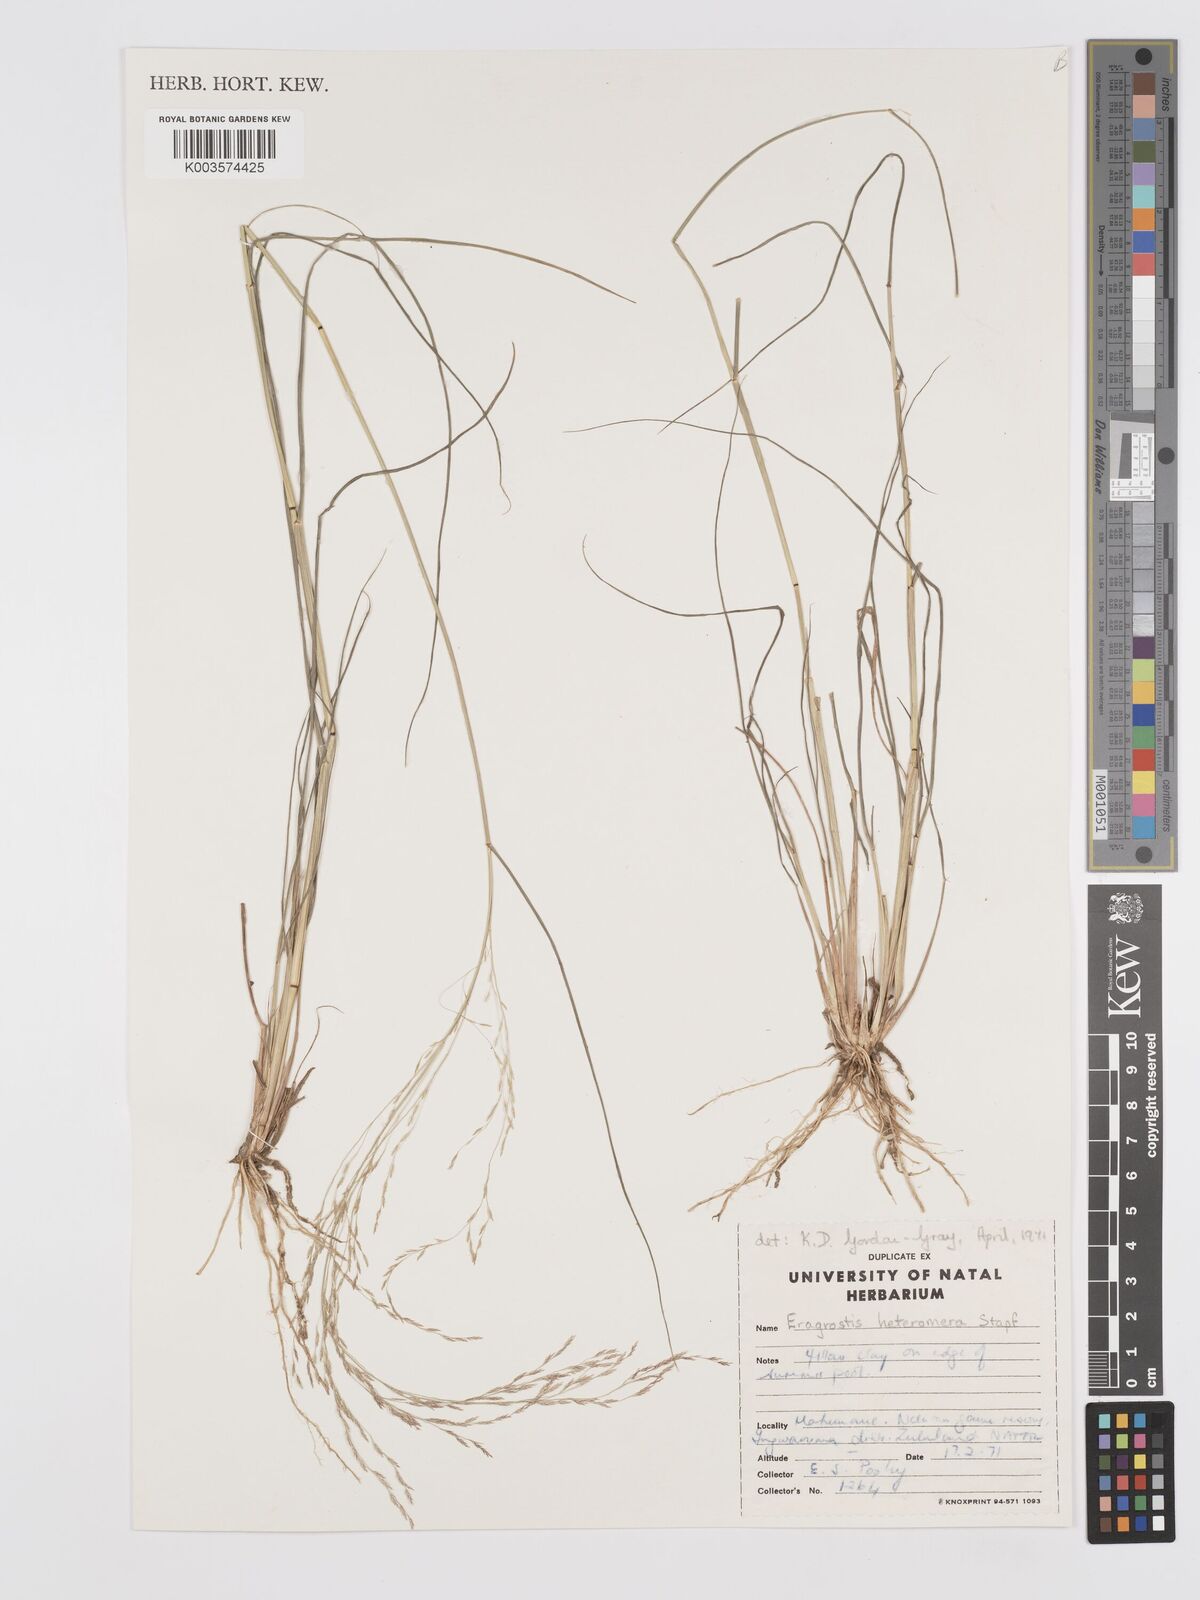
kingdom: Plantae
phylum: Tracheophyta
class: Liliopsida
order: Poales
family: Poaceae
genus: Eragrostis
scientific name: Eragrostis heteromera
